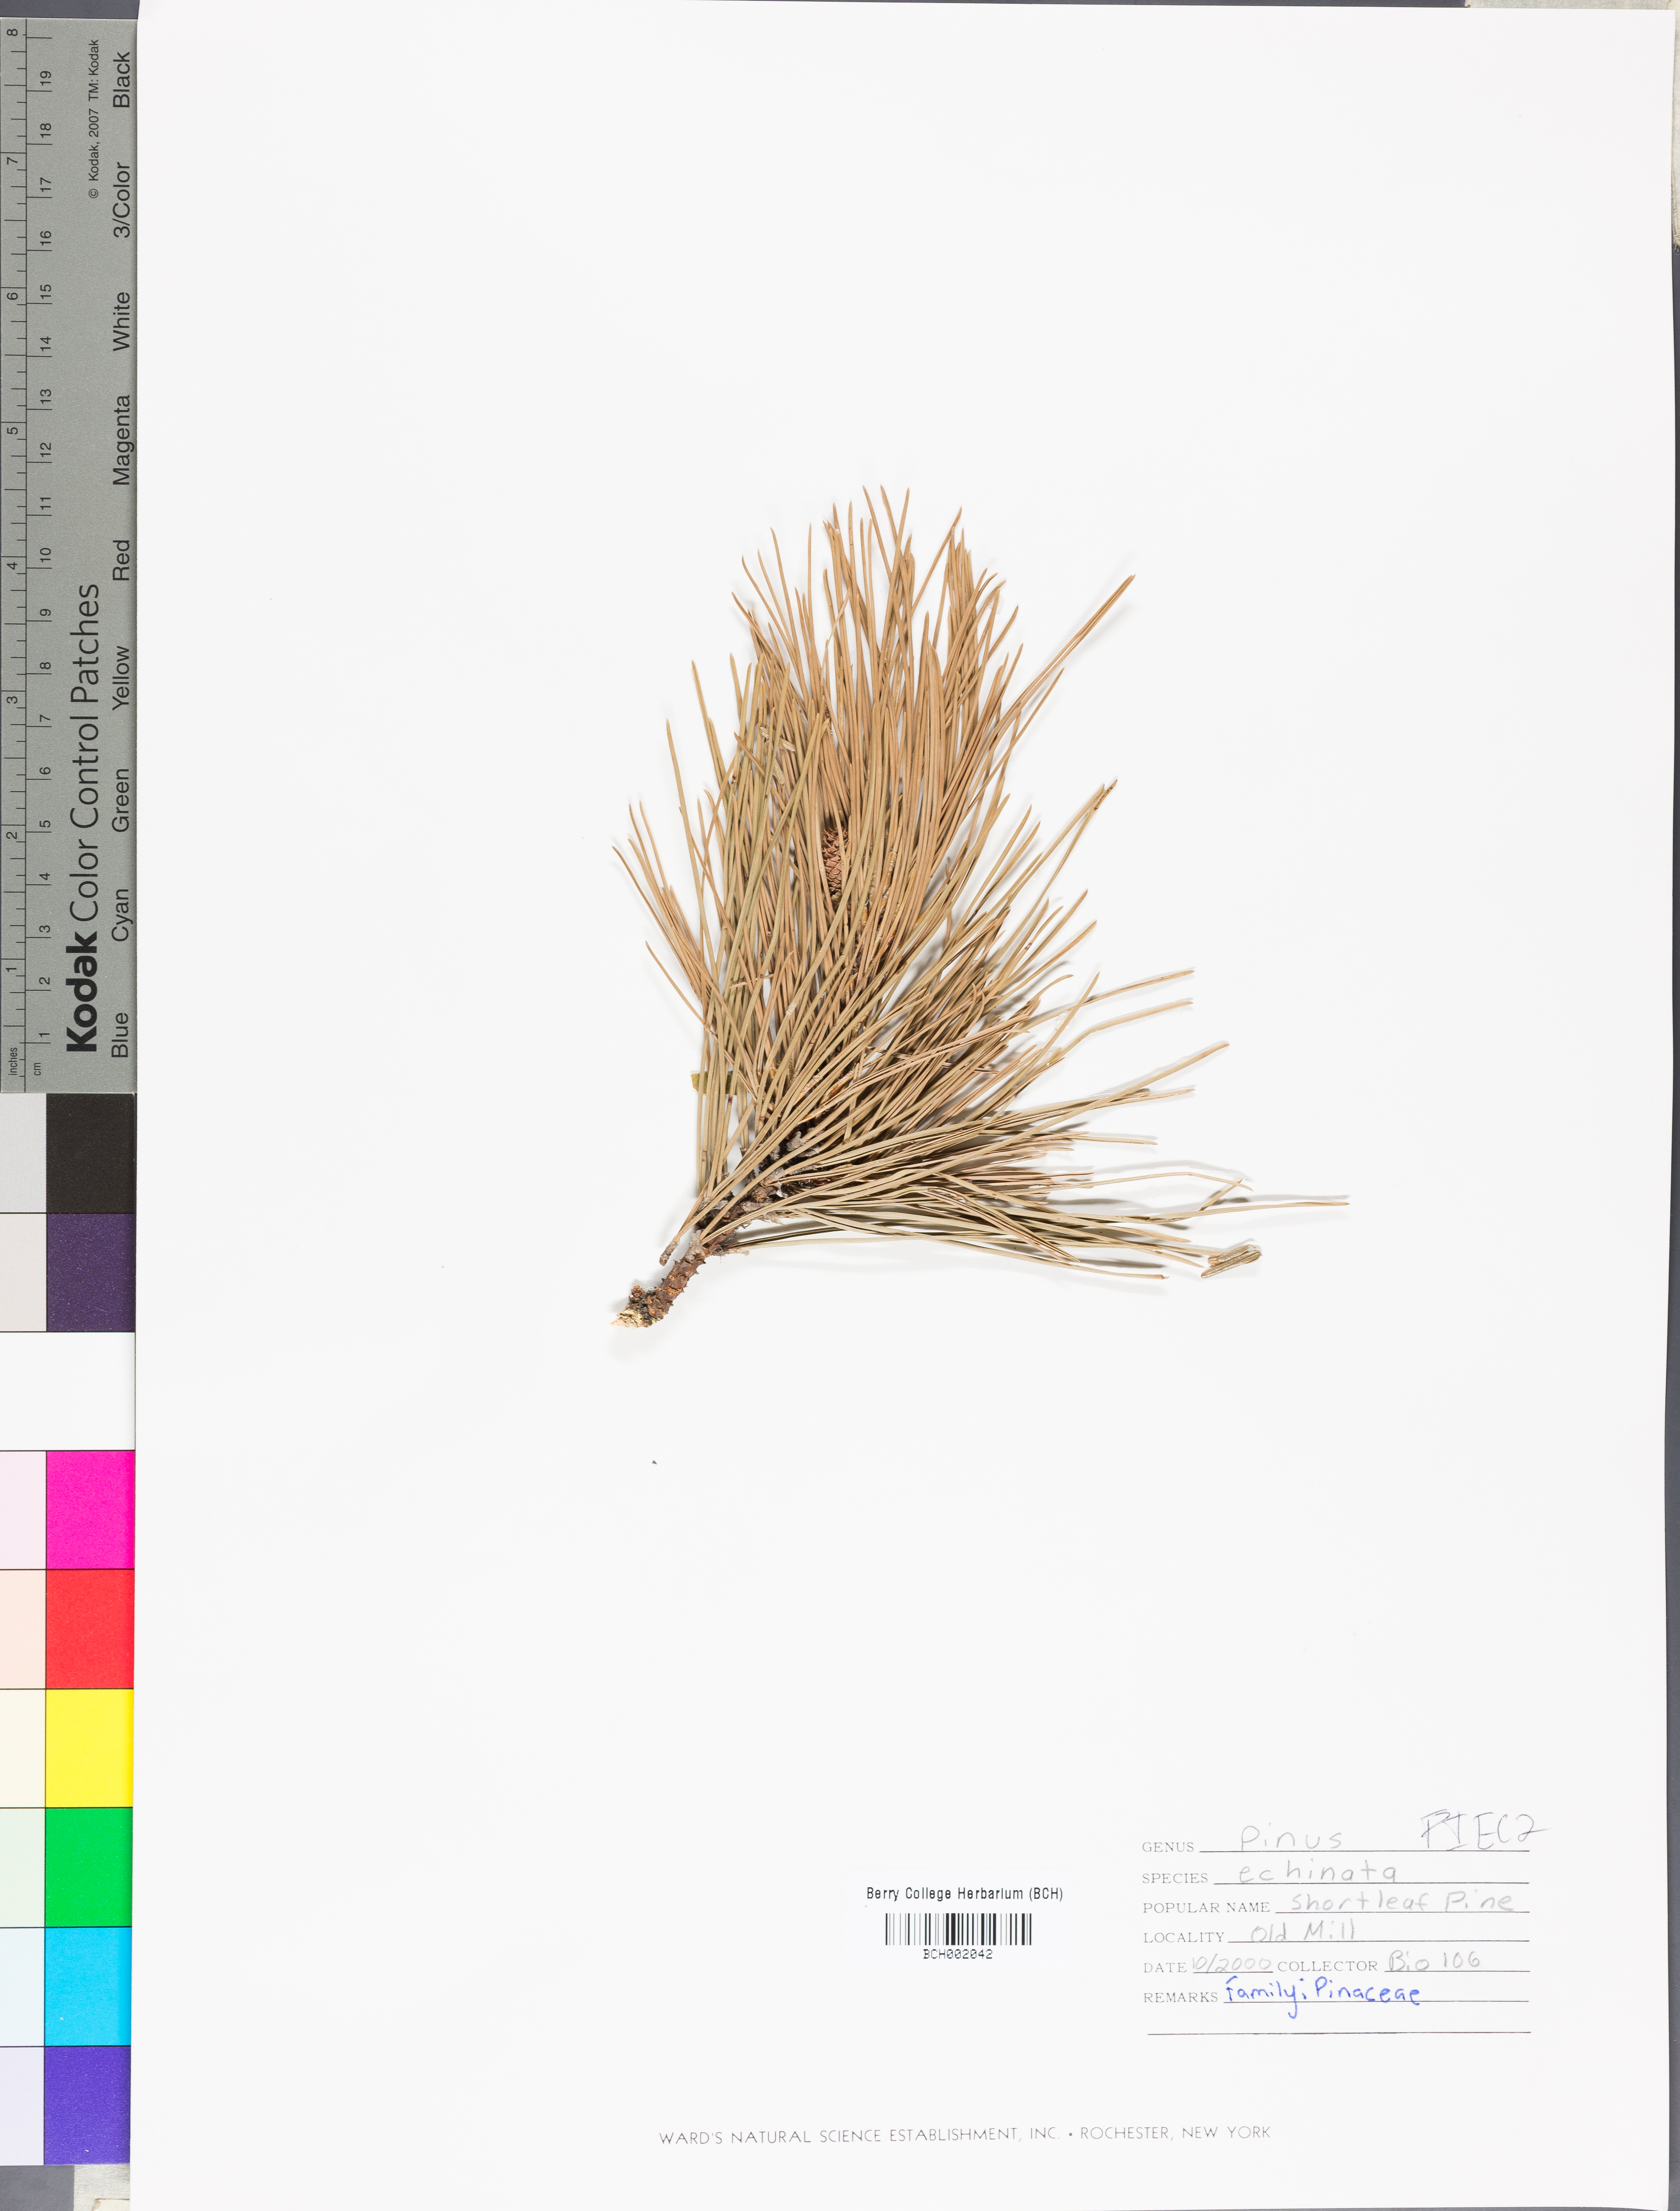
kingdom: Plantae
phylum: Tracheophyta
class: Pinopsida
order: Pinales
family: Pinaceae
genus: Pinus
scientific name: Pinus echinata
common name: Shortleaf pine
